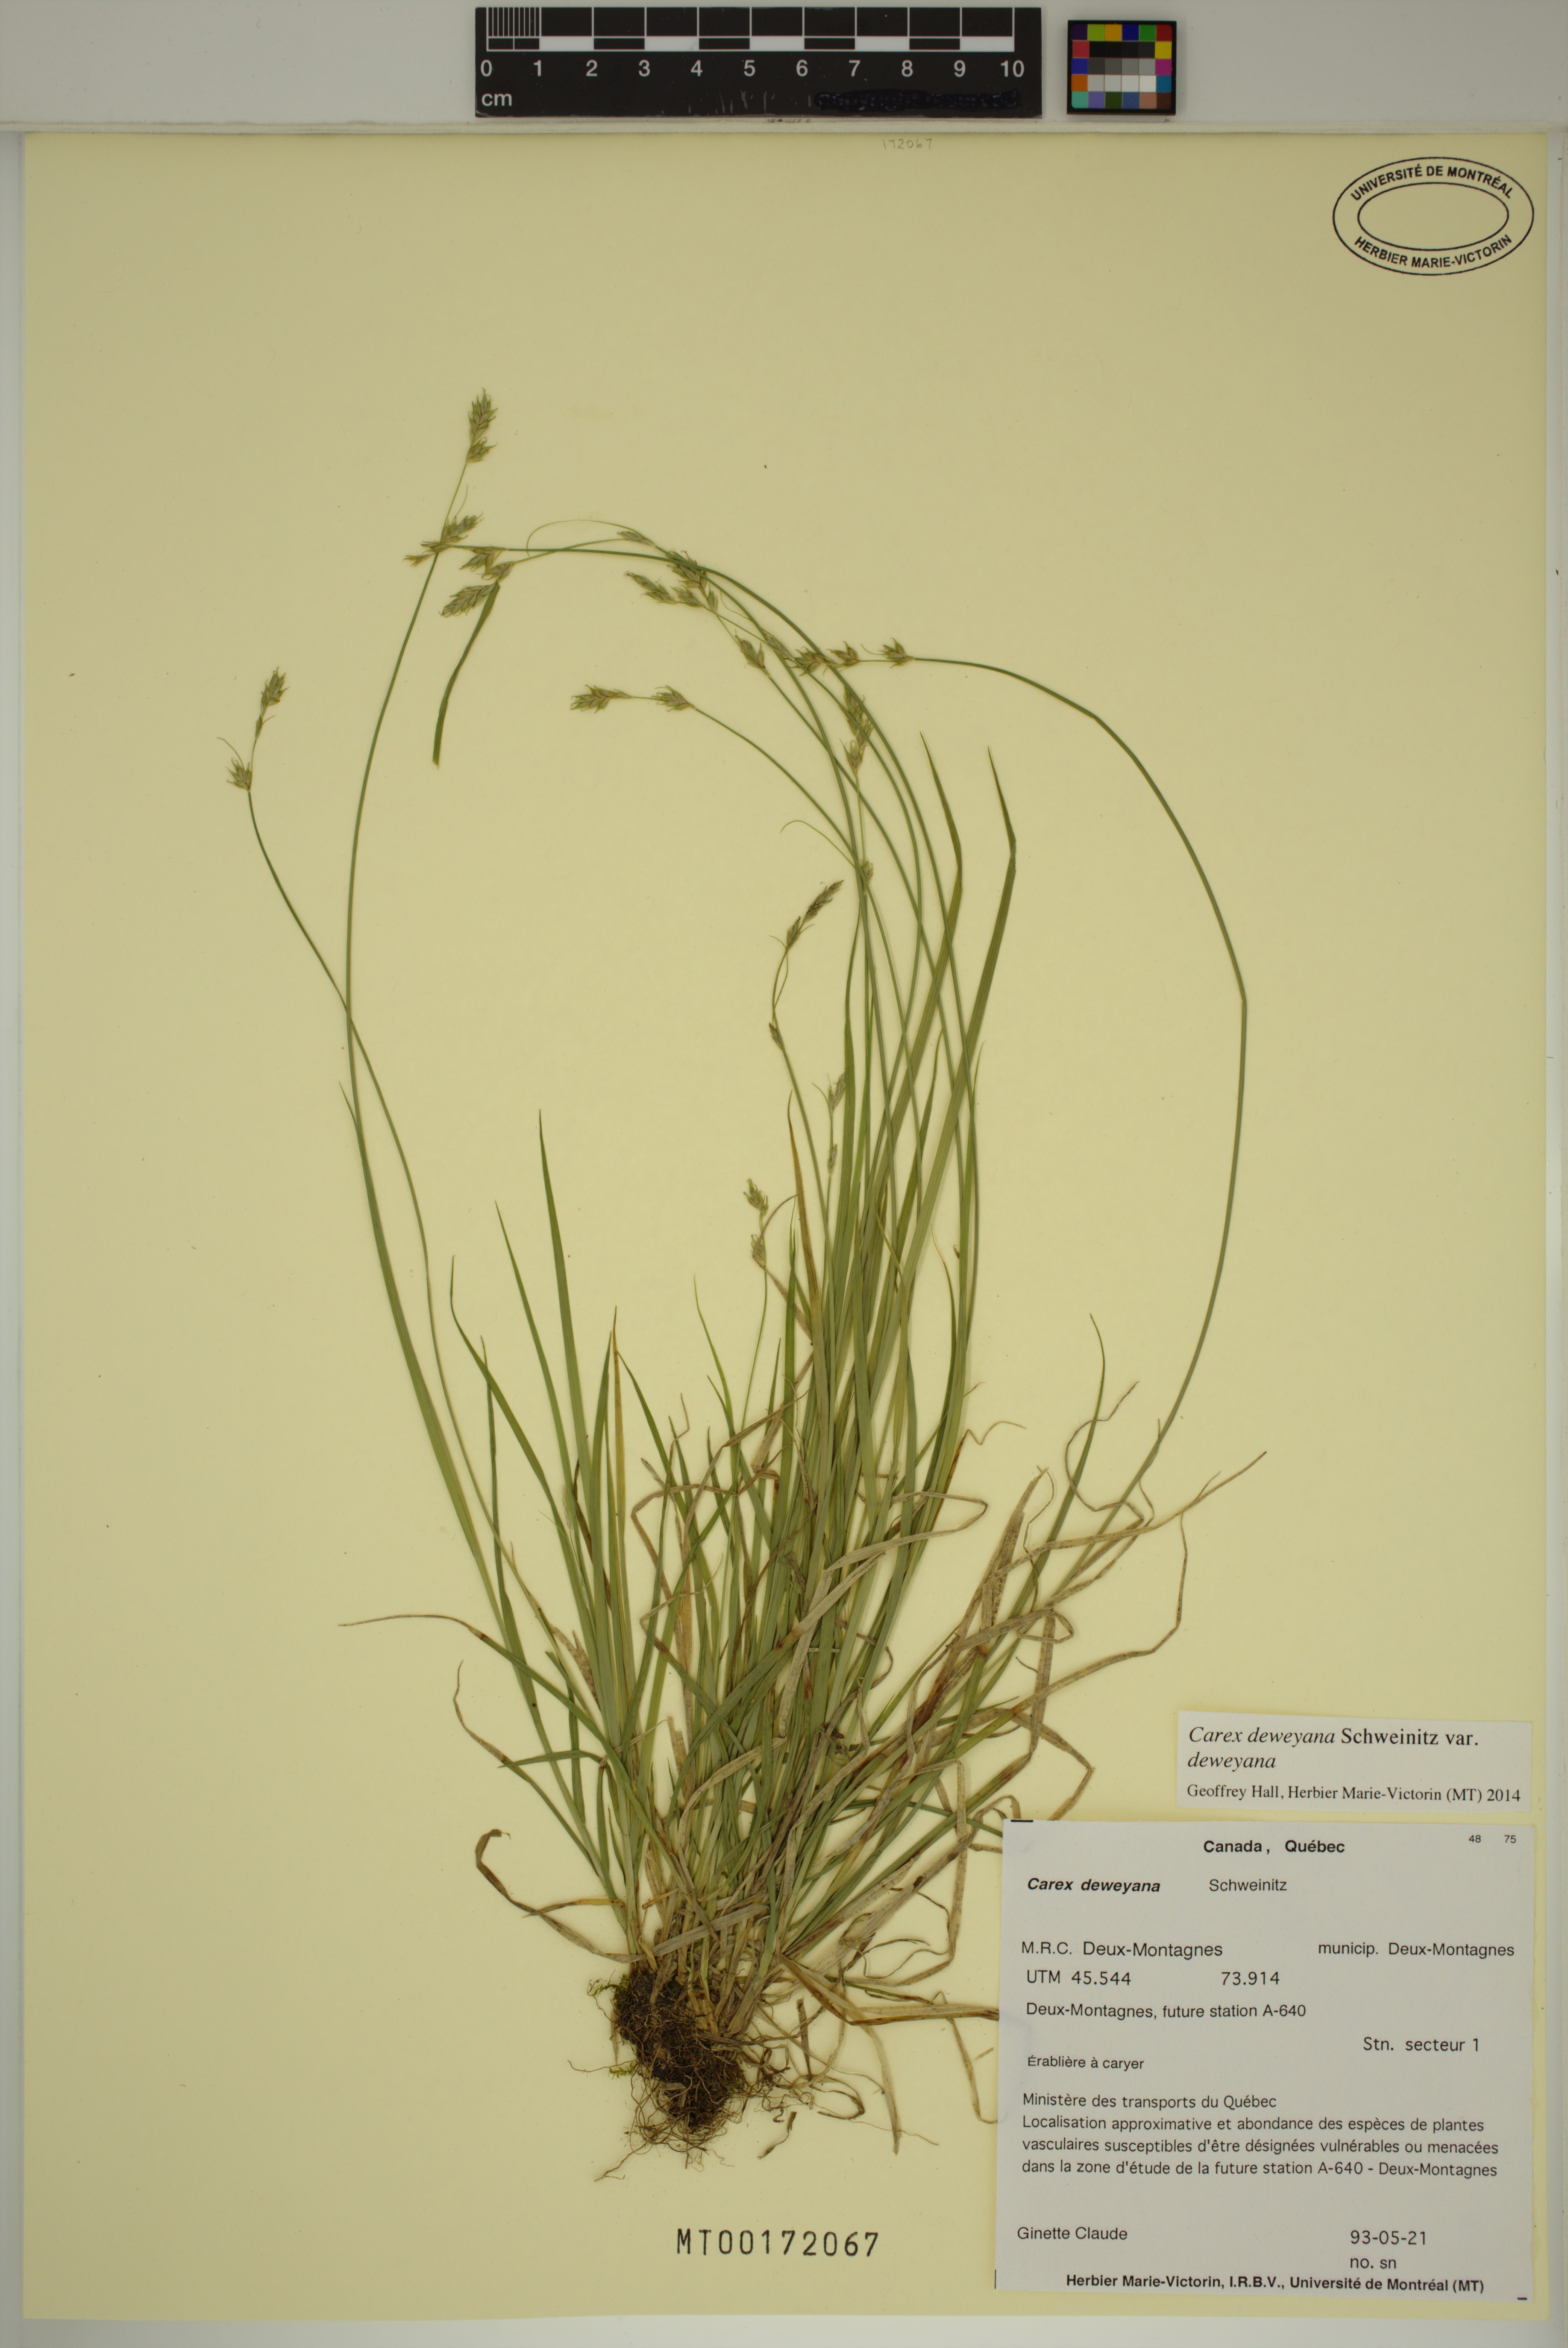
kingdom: Plantae
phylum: Tracheophyta
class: Liliopsida
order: Poales
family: Cyperaceae
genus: Carex
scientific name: Carex deweyana
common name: Dewey's sedge
